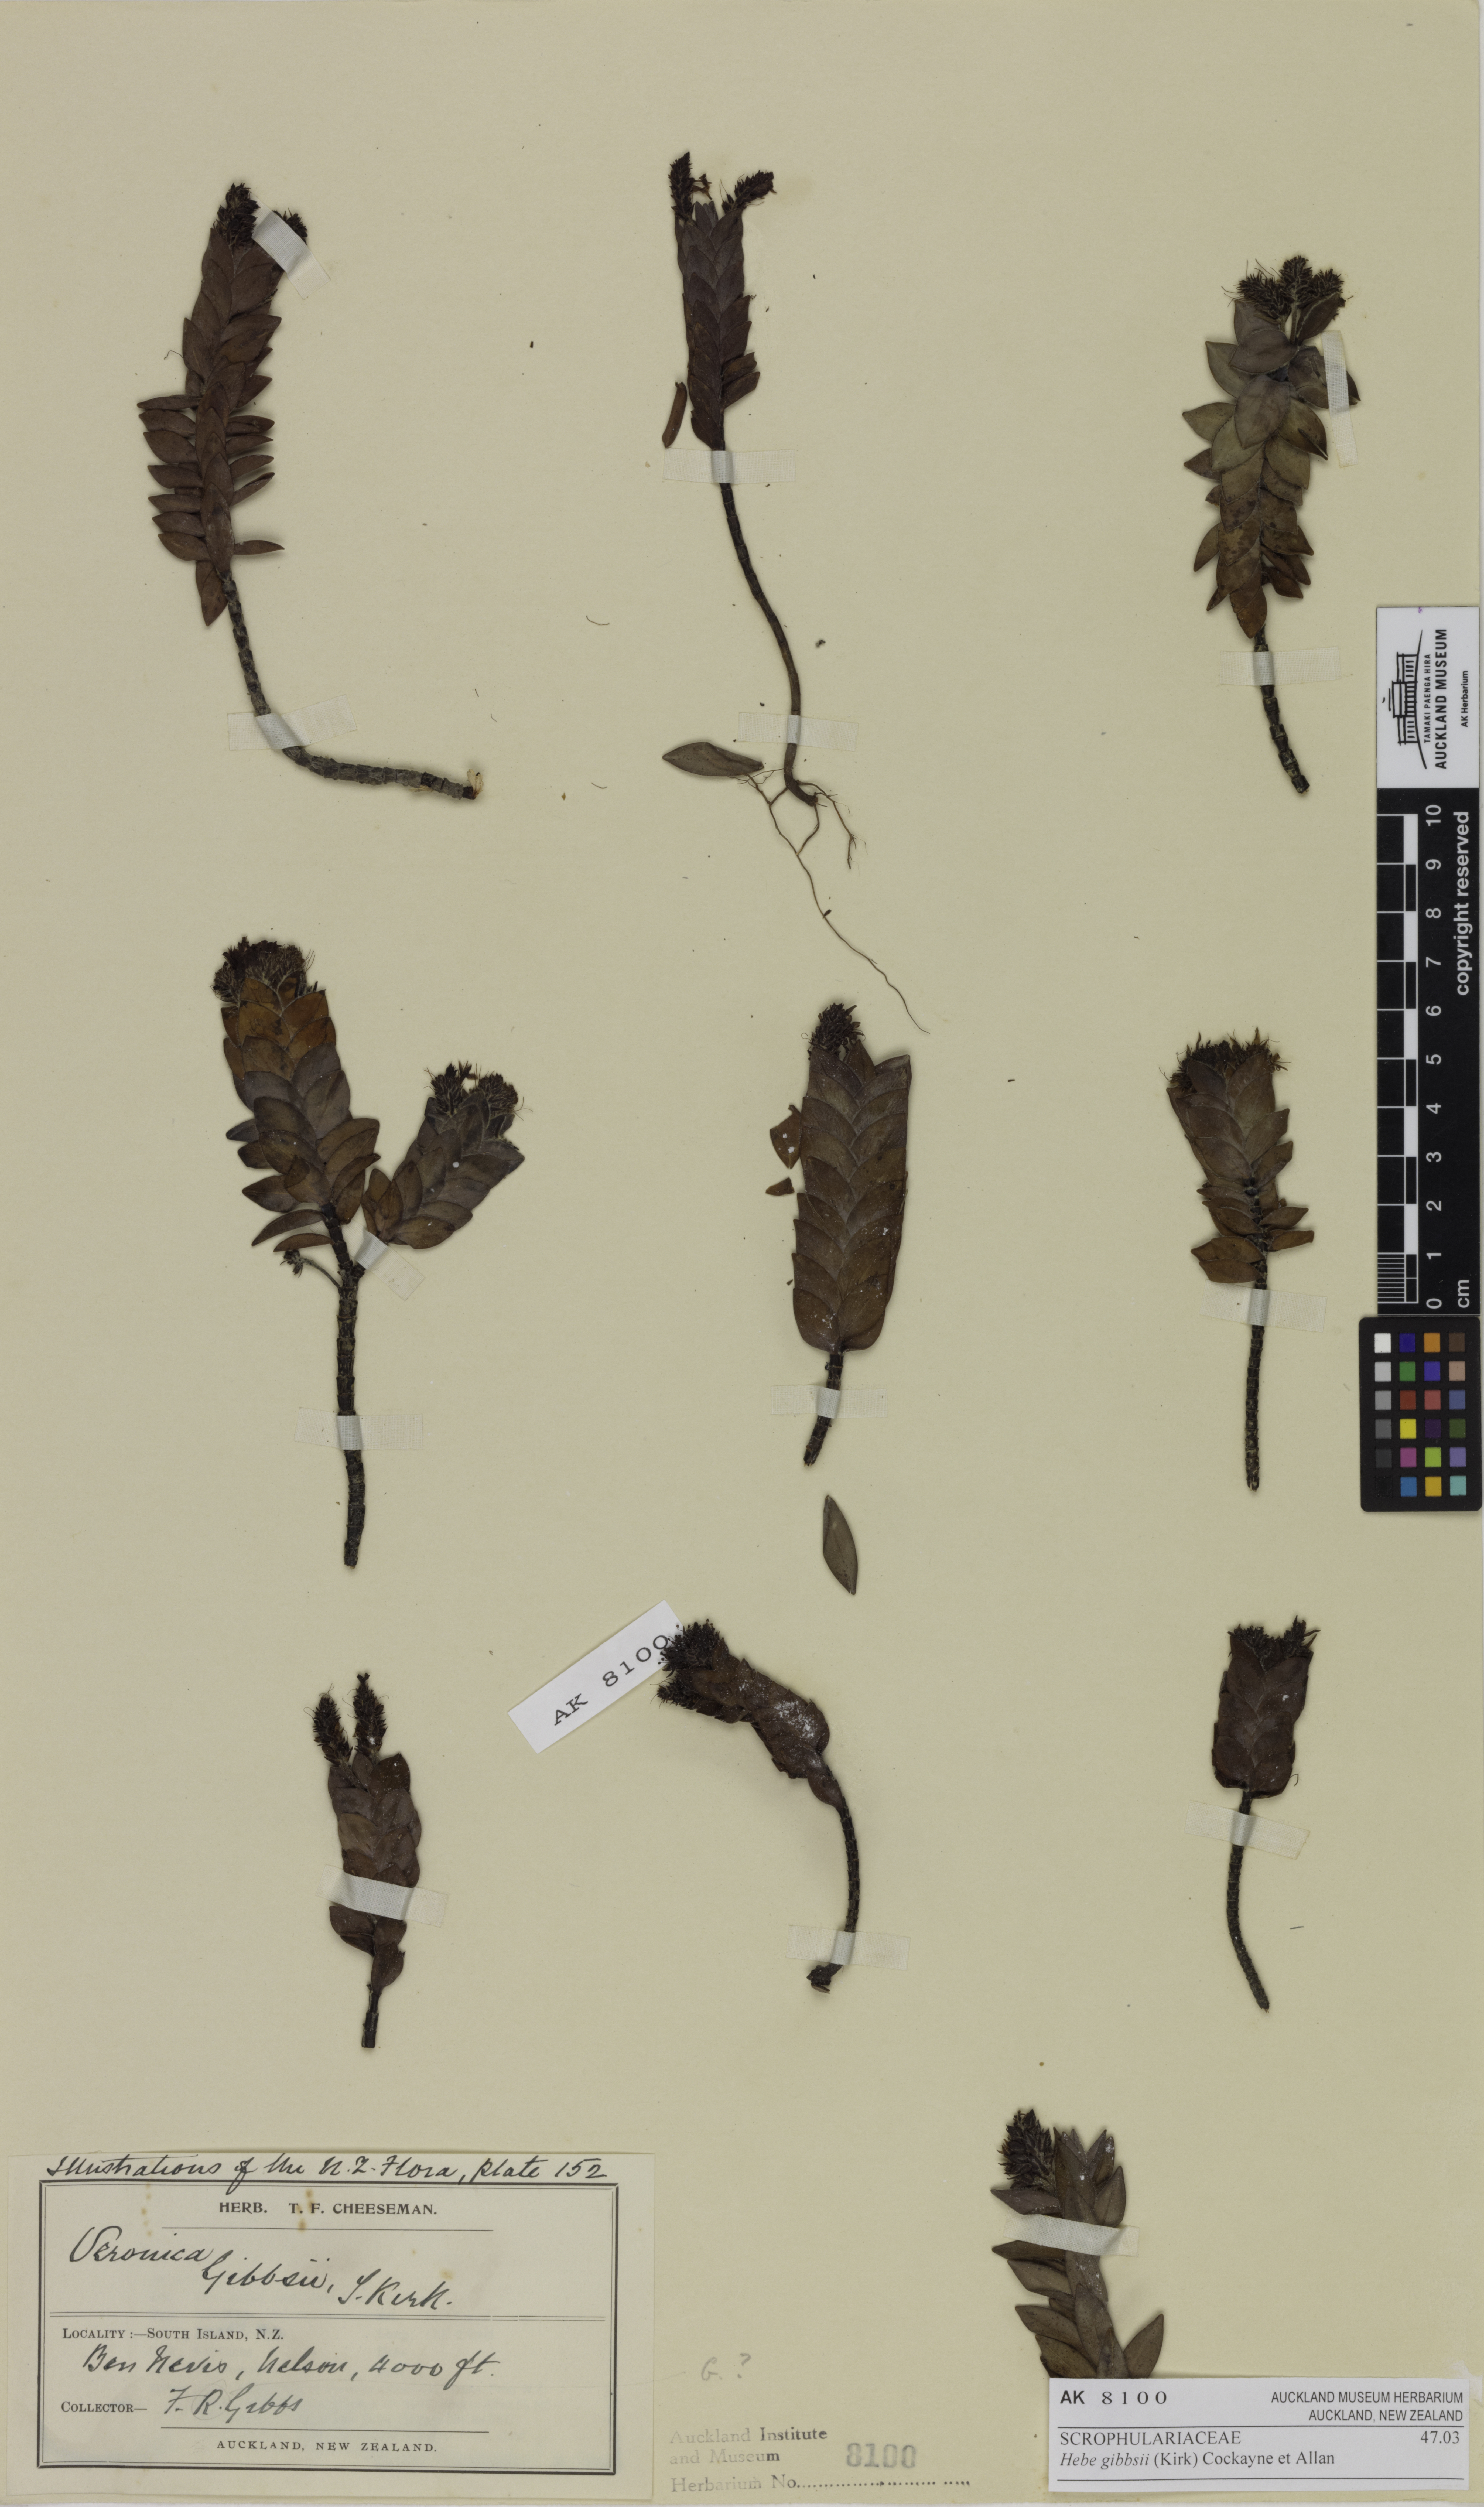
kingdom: Plantae
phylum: Tracheophyta
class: Magnoliopsida
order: Lamiales
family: Plantaginaceae
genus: Veronica
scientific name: Veronica gibbsii
